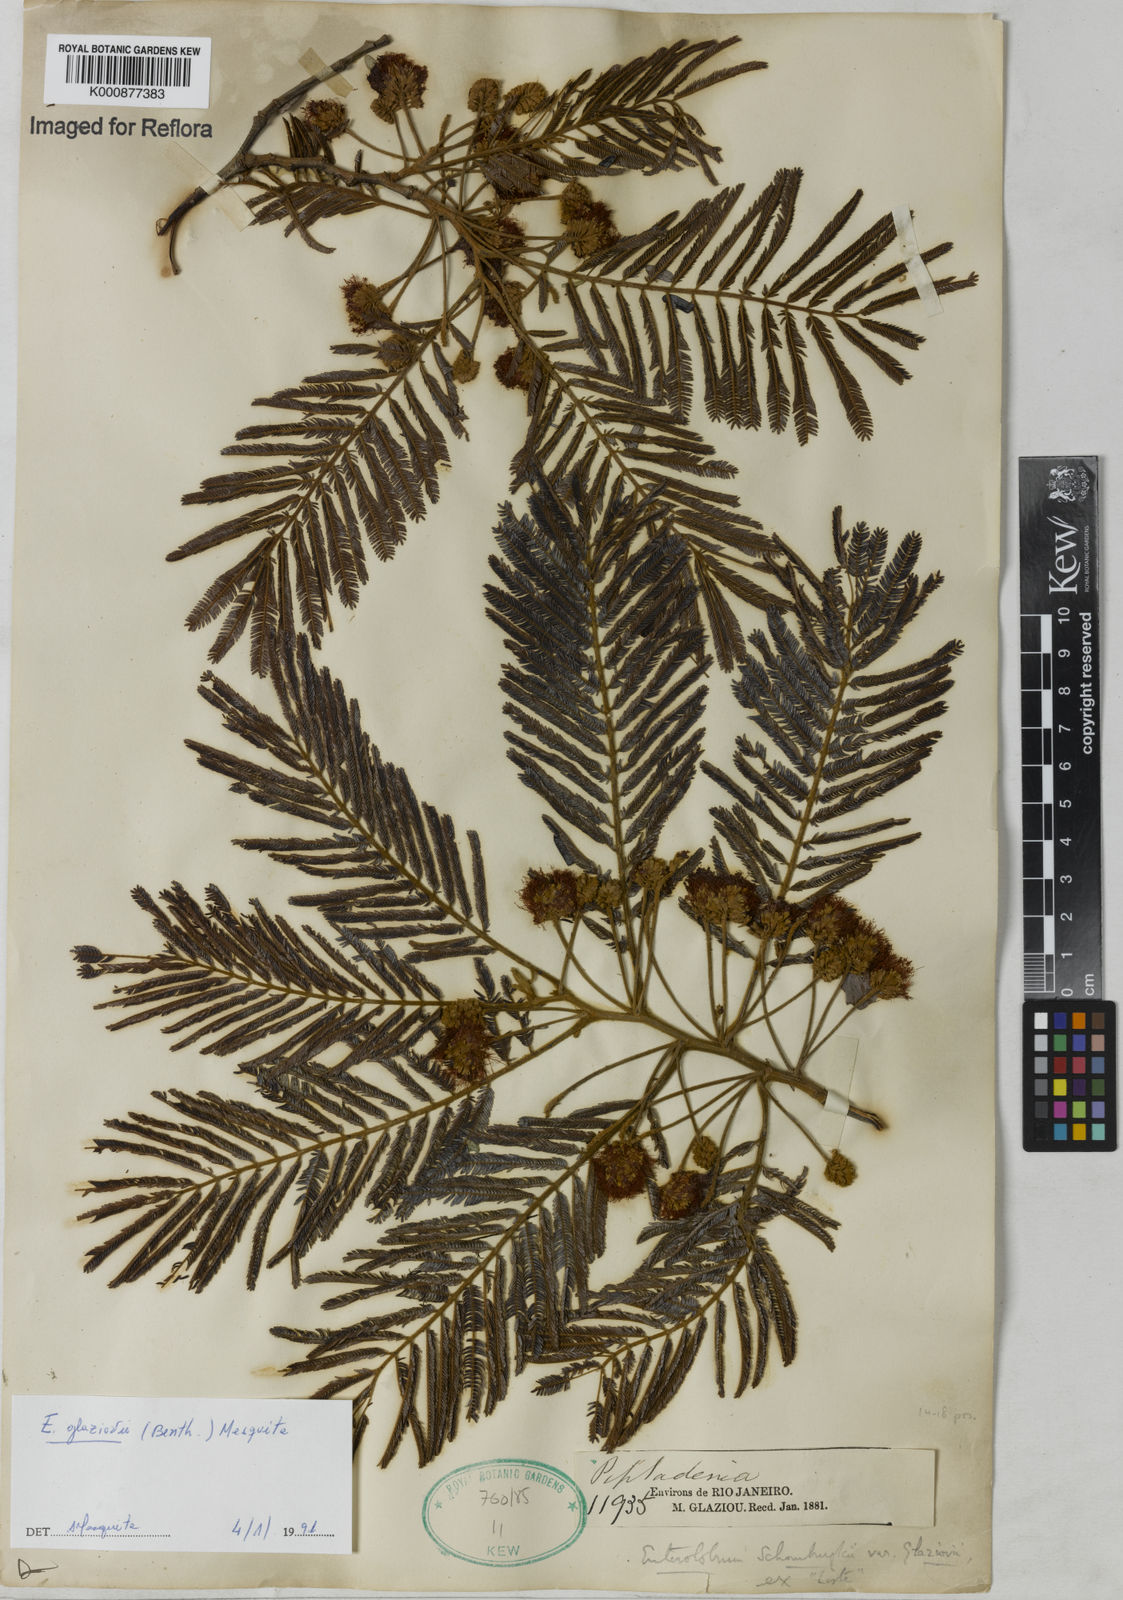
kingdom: Plantae
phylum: Tracheophyta
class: Magnoliopsida
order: Fabales
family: Fabaceae
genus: Enterolobium
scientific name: Enterolobium glaziovii
